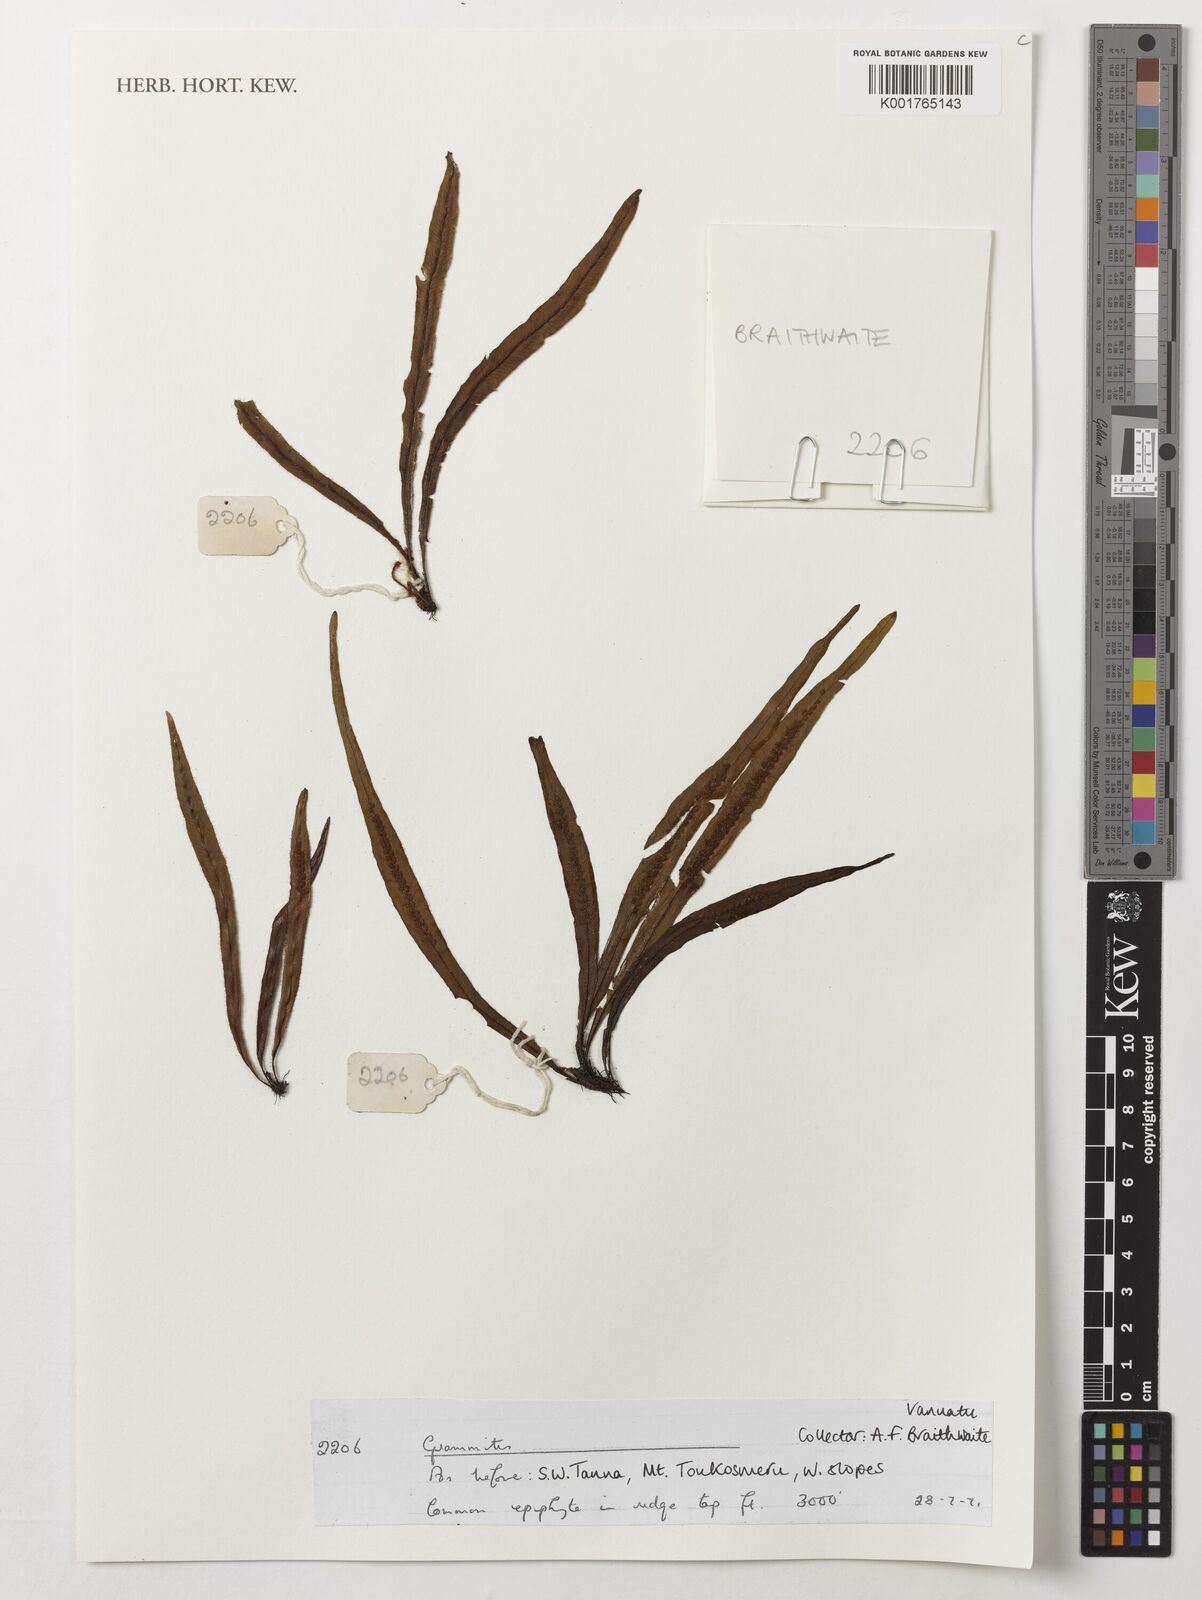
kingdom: Plantae
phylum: Tracheophyta
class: Polypodiopsida
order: Polypodiales
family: Polypodiaceae
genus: Grammitis
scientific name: Grammitis
